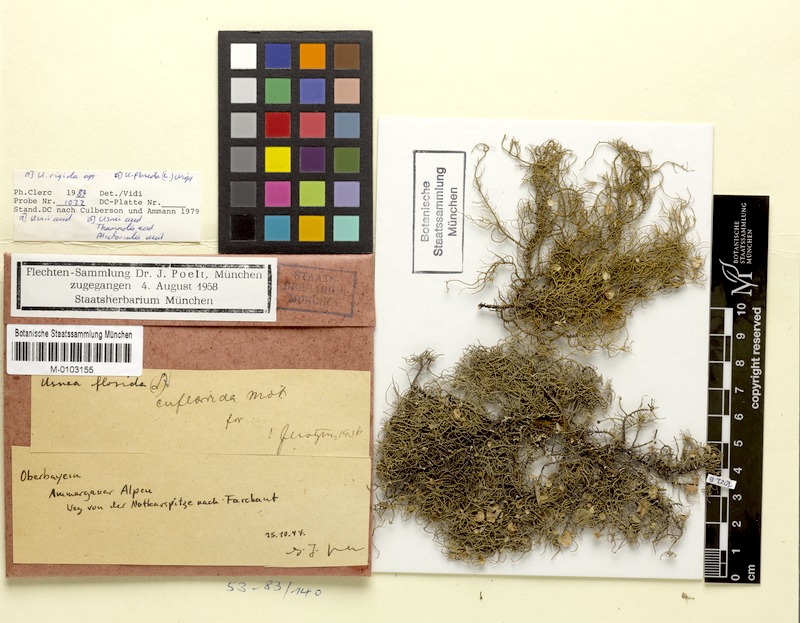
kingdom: Fungi
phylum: Ascomycota
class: Lecanoromycetes
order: Lecanorales
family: Parmeliaceae
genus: Usnea
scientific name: Usnea quasirigida
